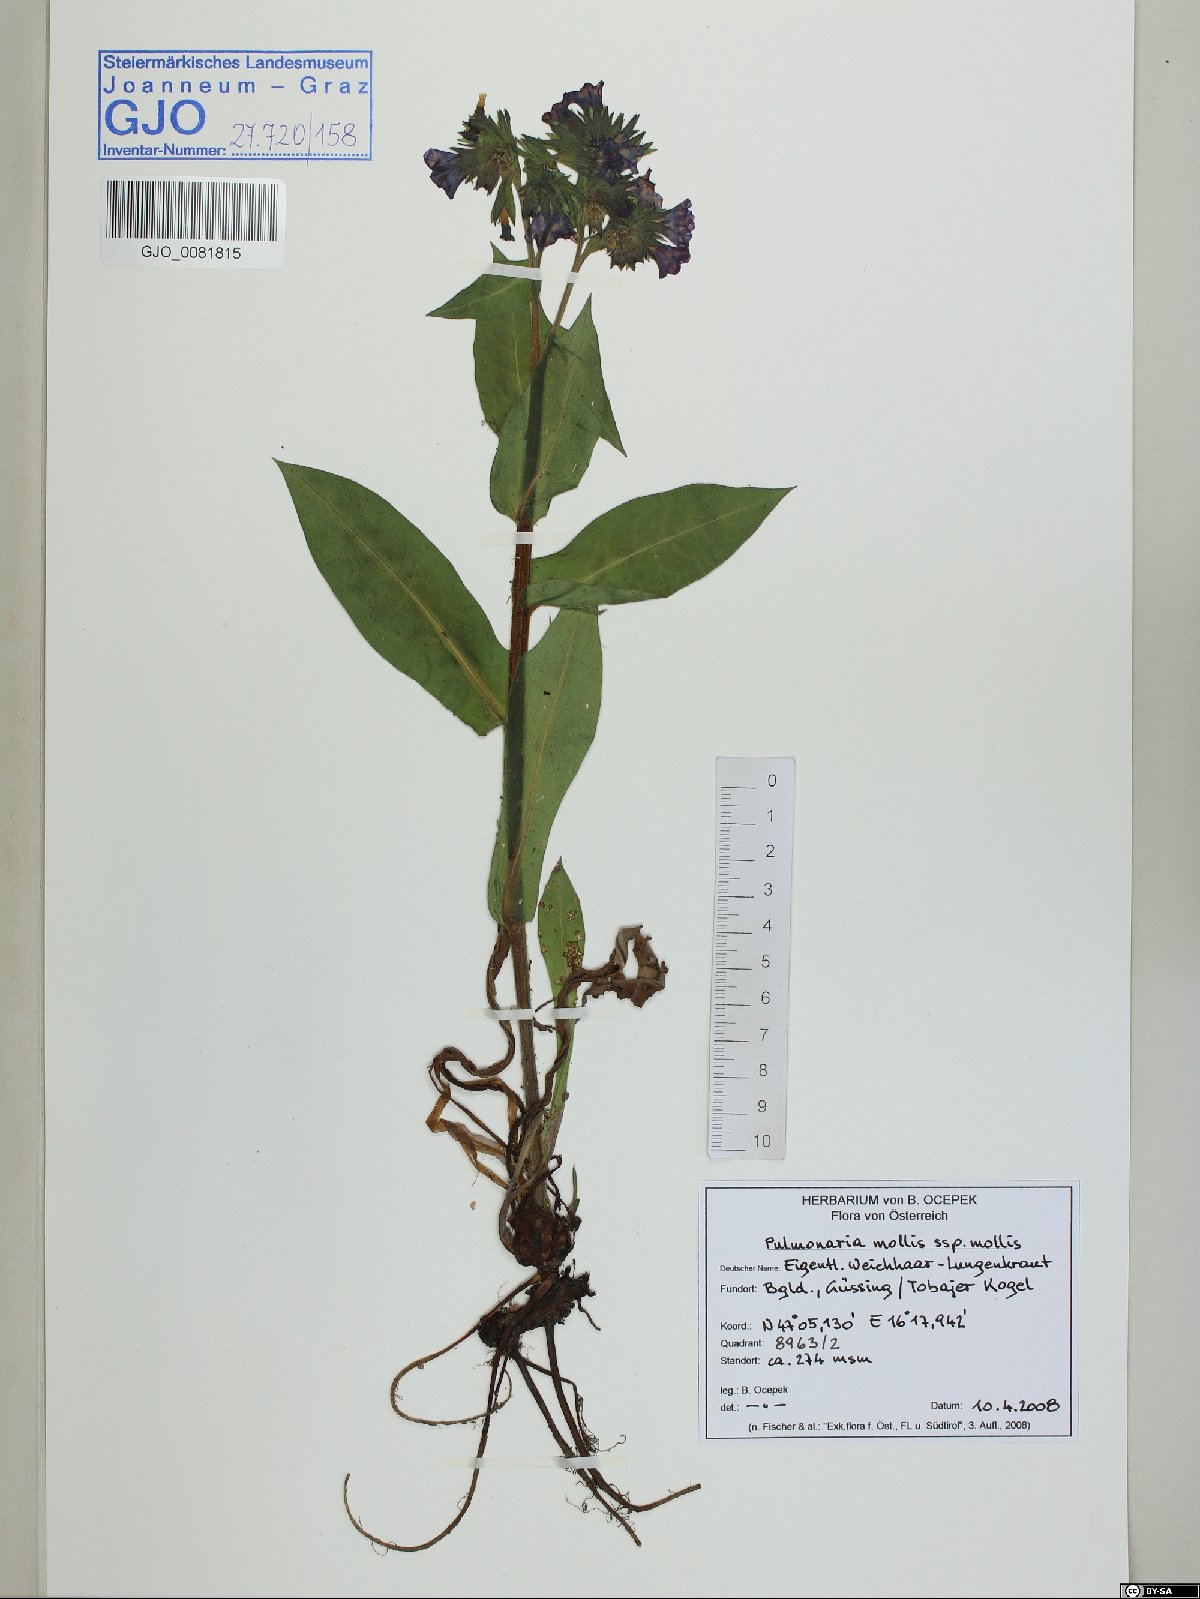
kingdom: Plantae
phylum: Tracheophyta
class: Magnoliopsida
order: Boraginales
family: Boraginaceae
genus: Pulmonaria
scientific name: Pulmonaria mollis
